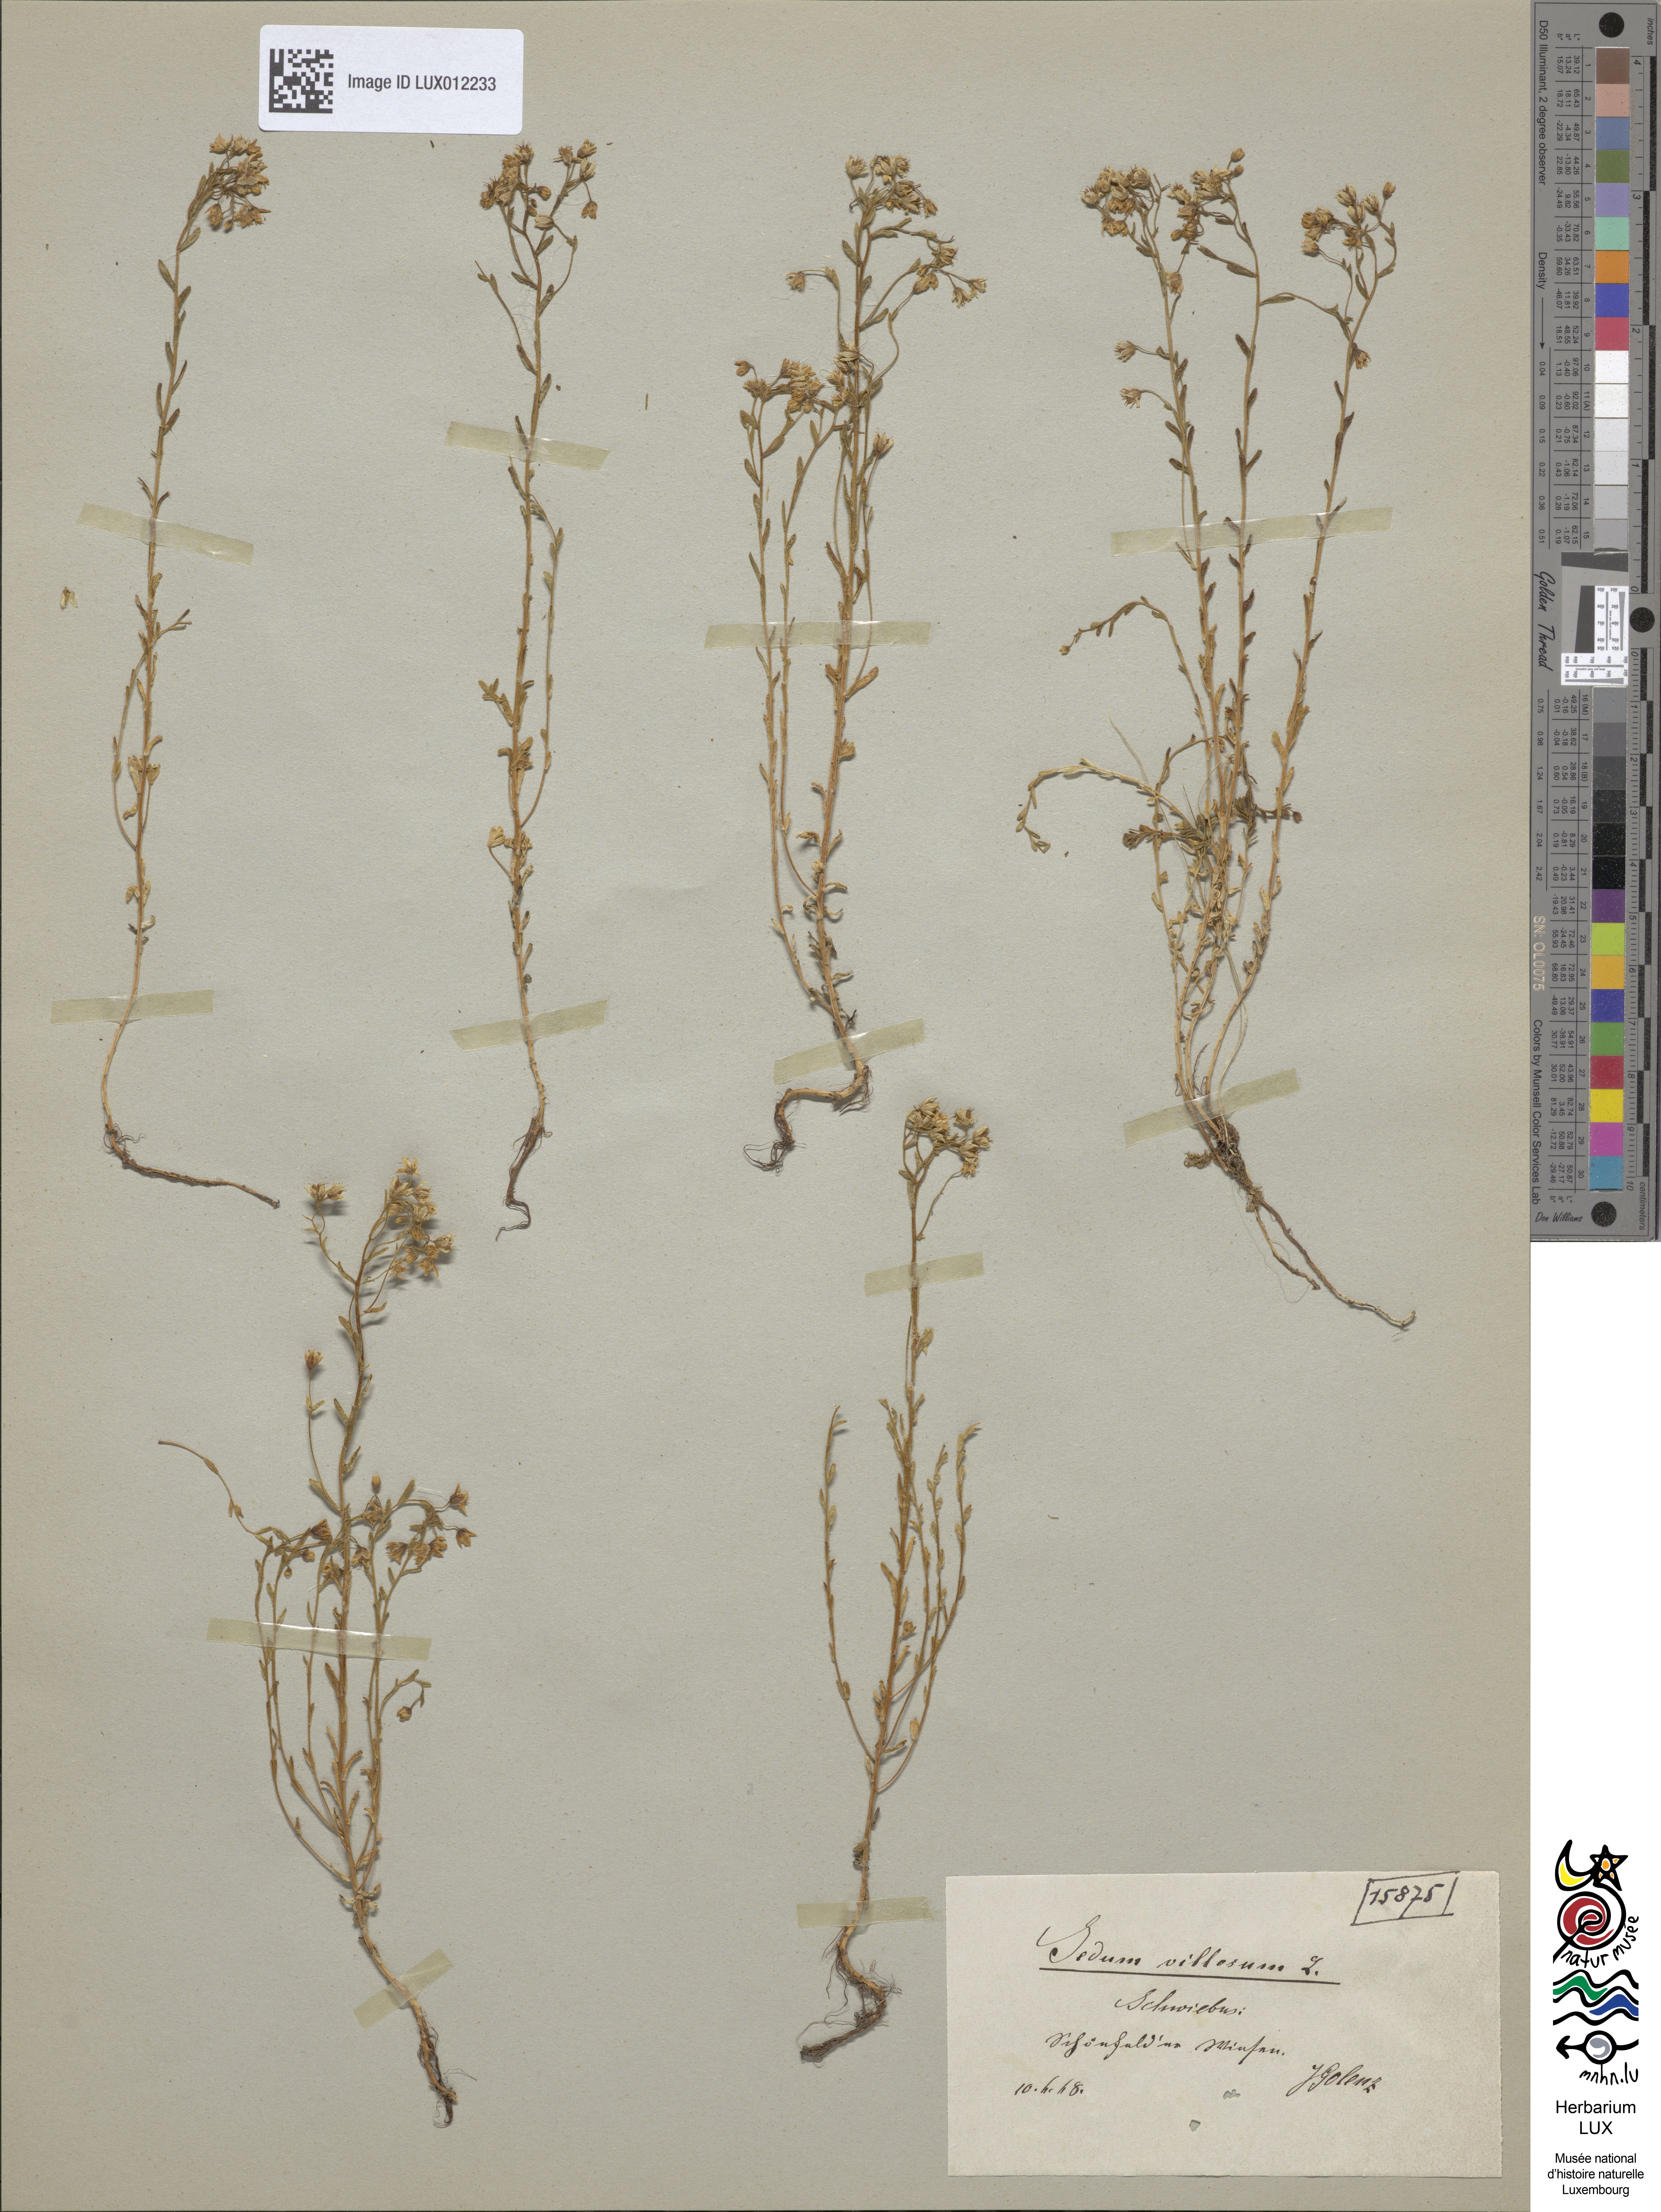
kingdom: Plantae
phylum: Tracheophyta
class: Magnoliopsida
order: Saxifragales
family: Crassulaceae
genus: Sedum
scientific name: Sedum villosum
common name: Hairy stonecrop
